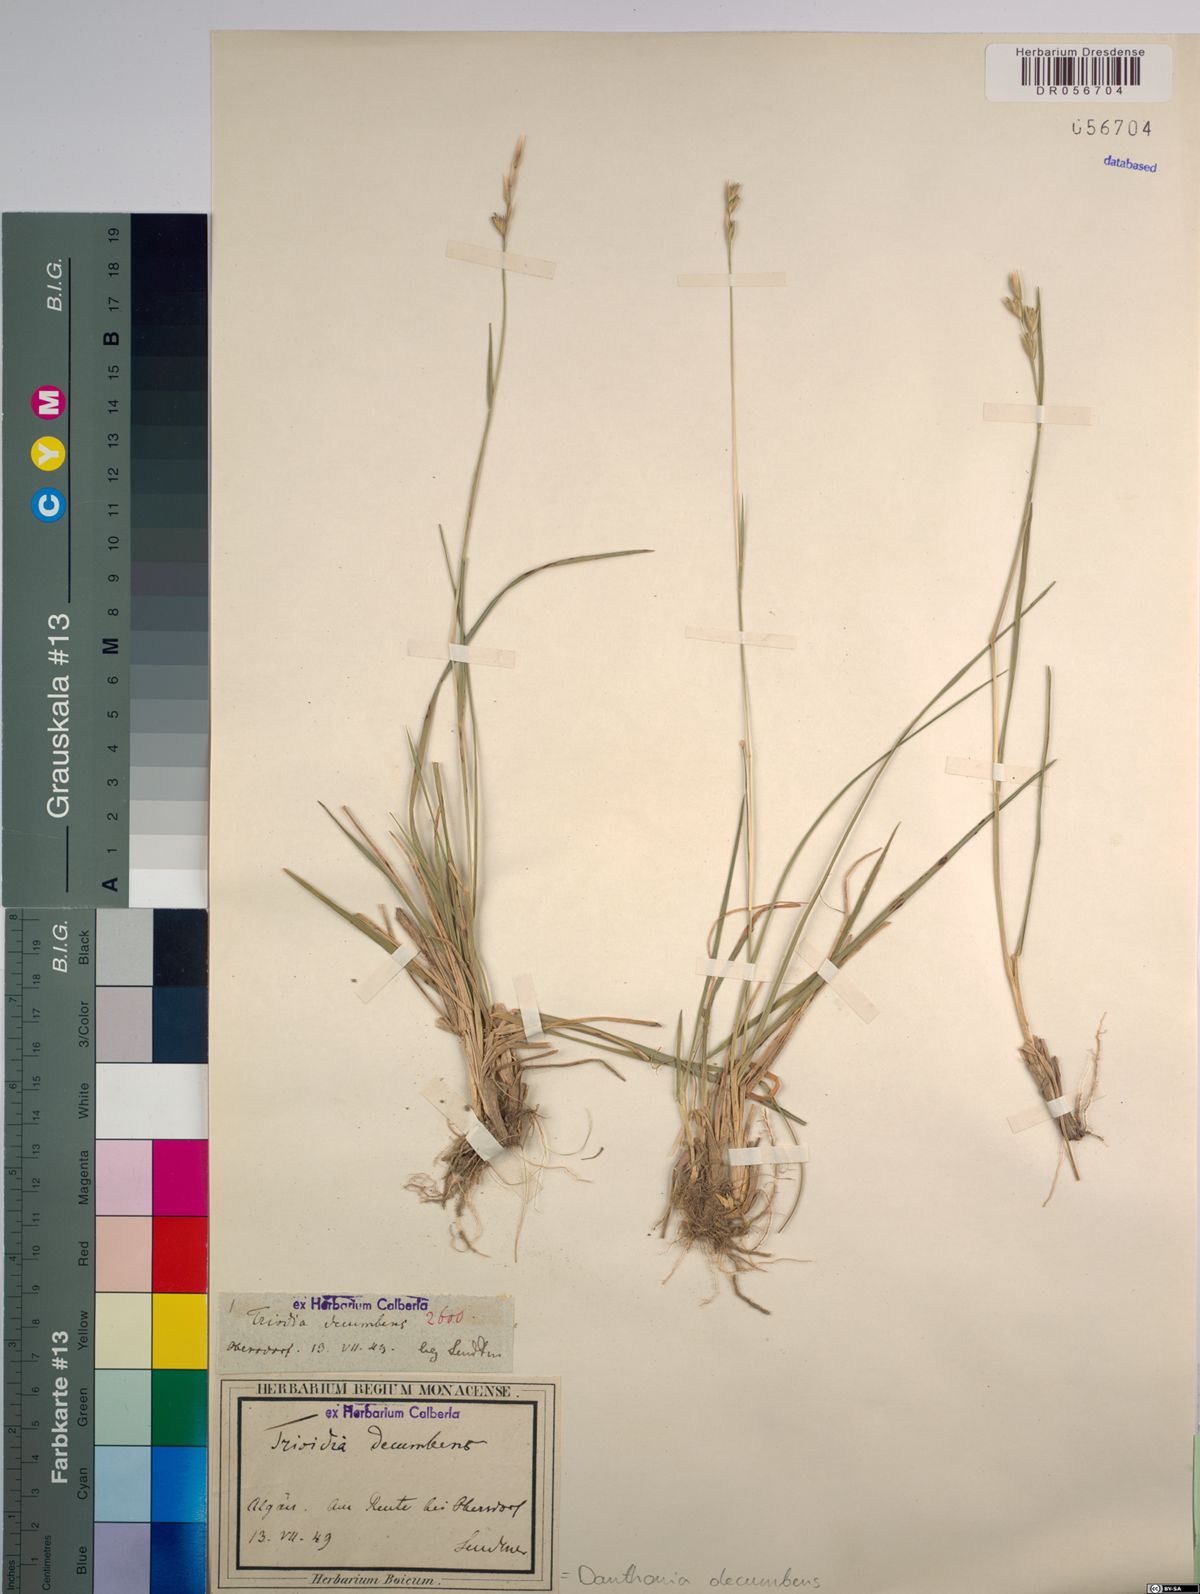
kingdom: Plantae
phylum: Tracheophyta
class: Liliopsida
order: Poales
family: Poaceae
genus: Danthonia
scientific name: Danthonia decumbens
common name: Common heathgrass
